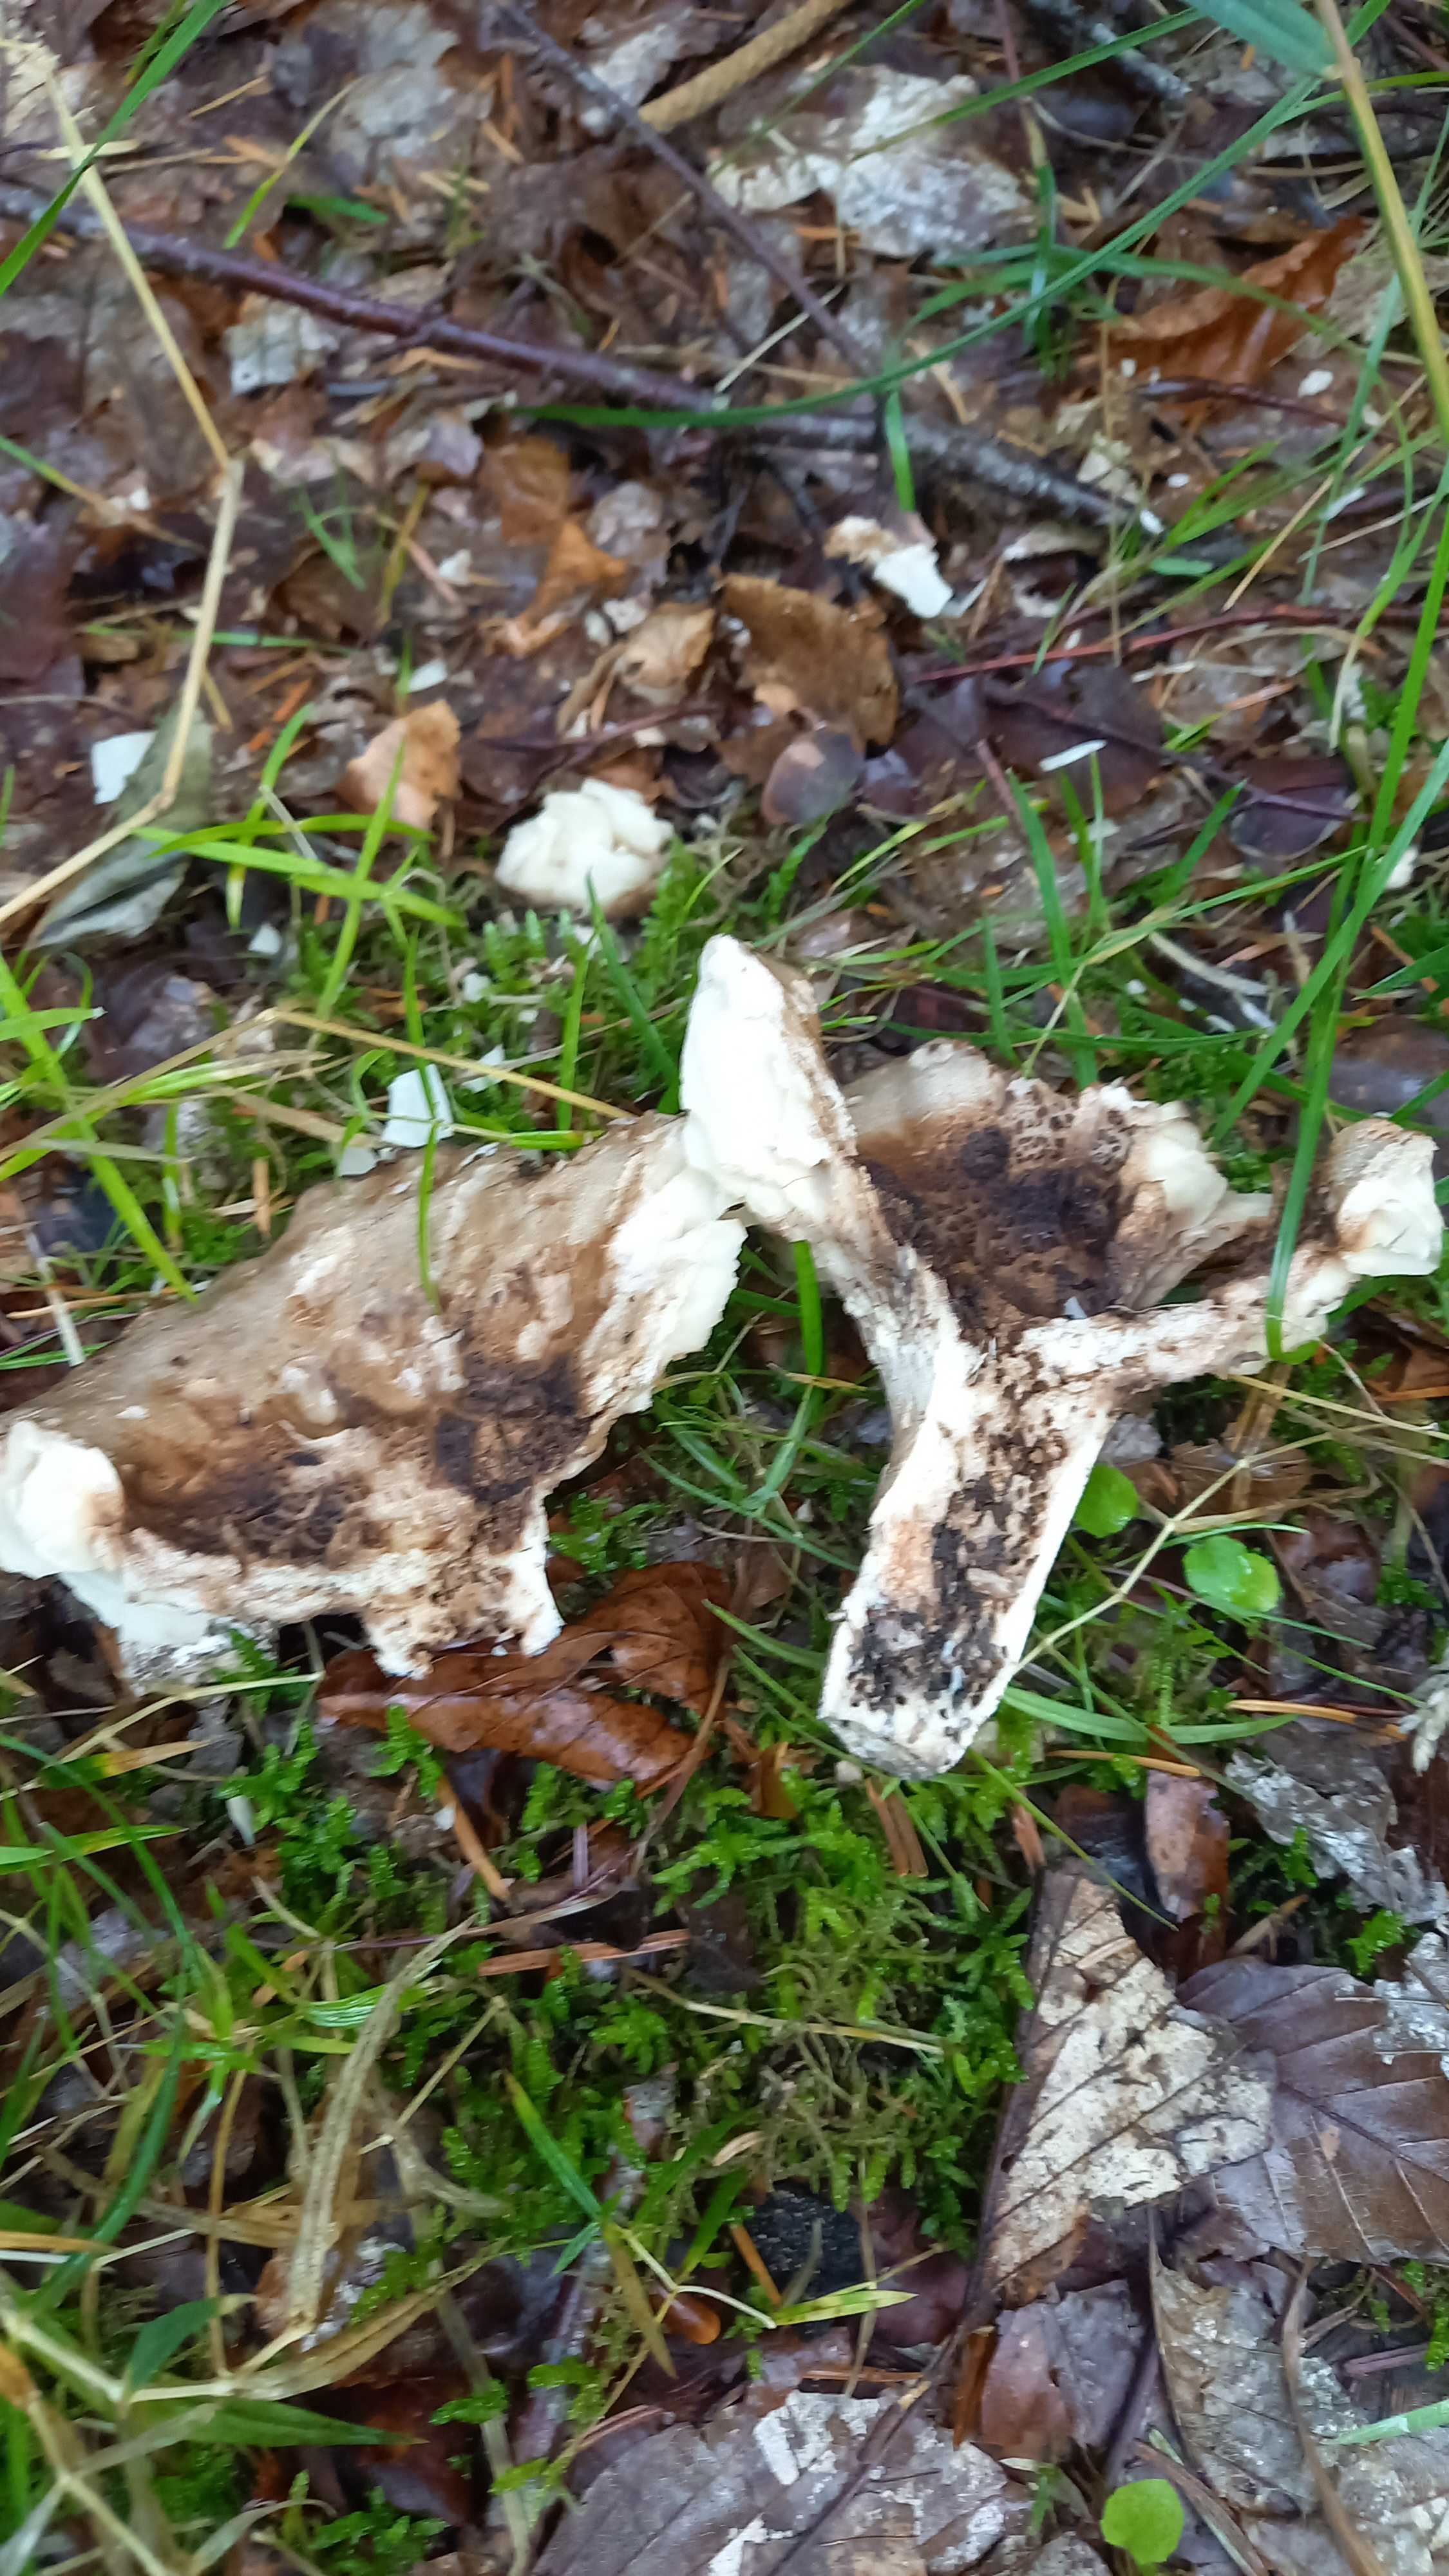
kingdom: Fungi
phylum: Basidiomycota
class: Agaricomycetes
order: Russulales
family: Russulaceae
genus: Russula
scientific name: Russula adusta
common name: sværtende skørhat
